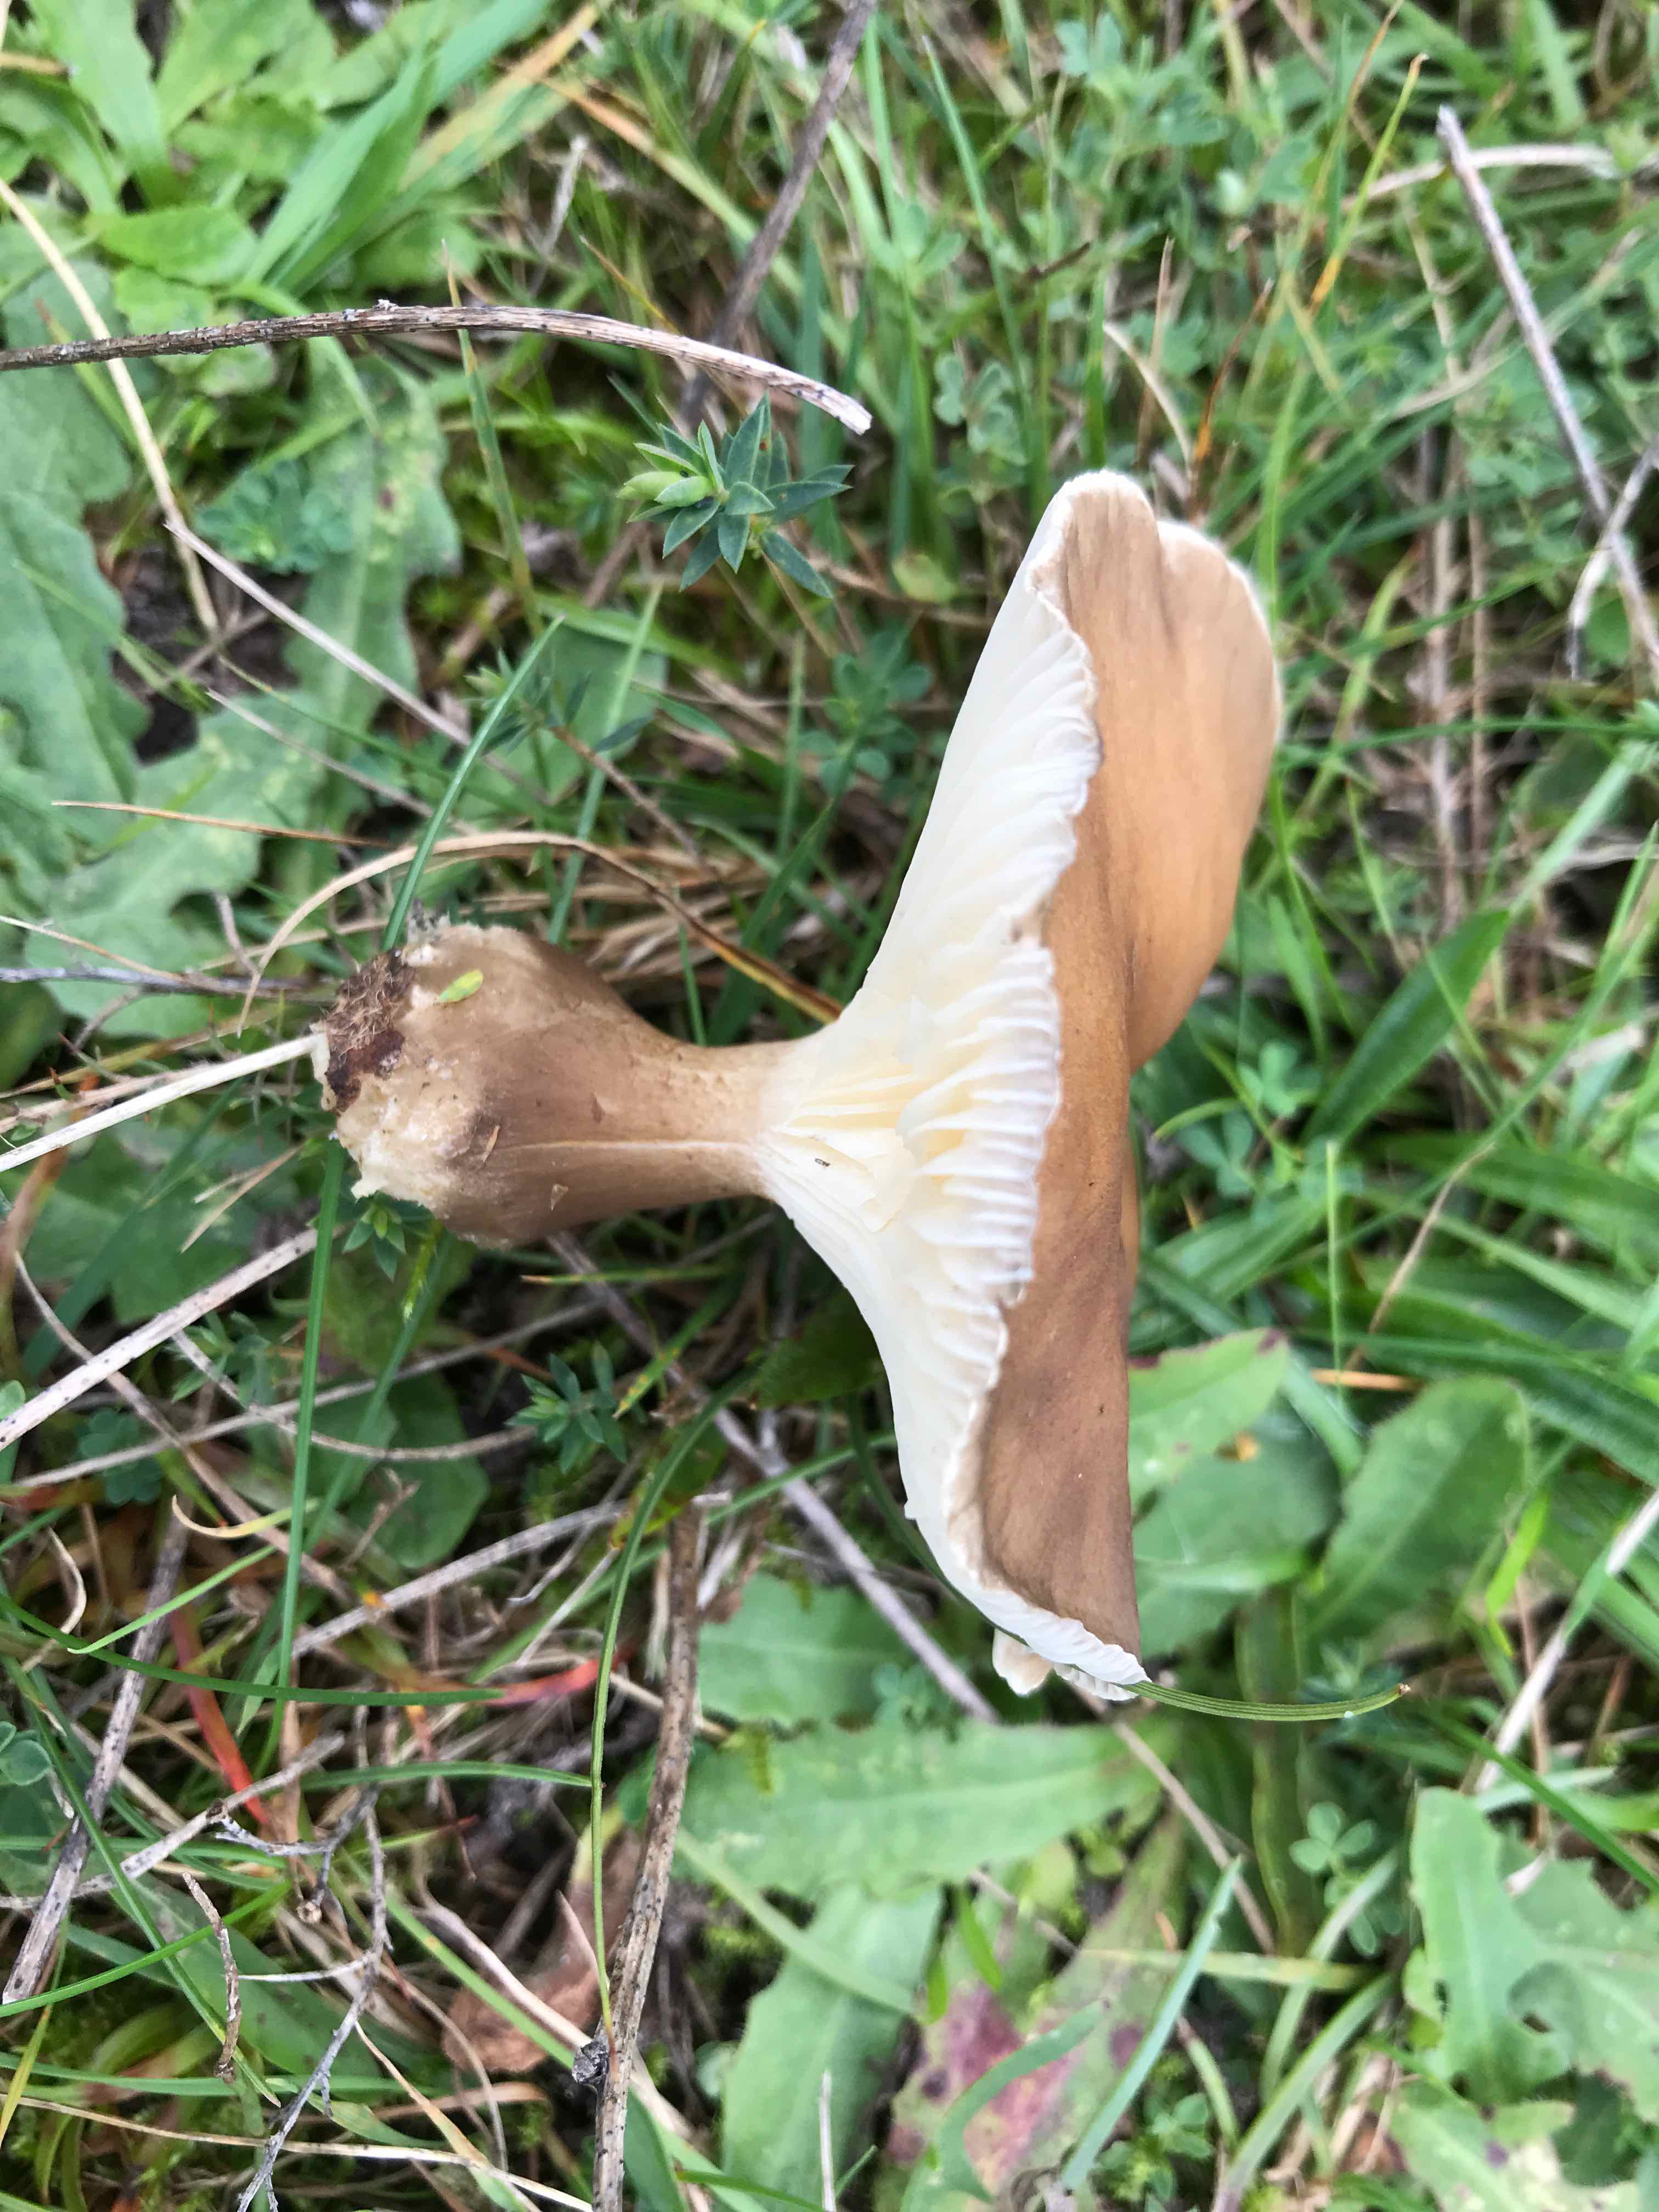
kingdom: Fungi
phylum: Basidiomycota
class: Agaricomycetes
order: Agaricales
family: Hygrophoraceae
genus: Ampulloclitocybe
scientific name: Ampulloclitocybe clavipes
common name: køllefod
